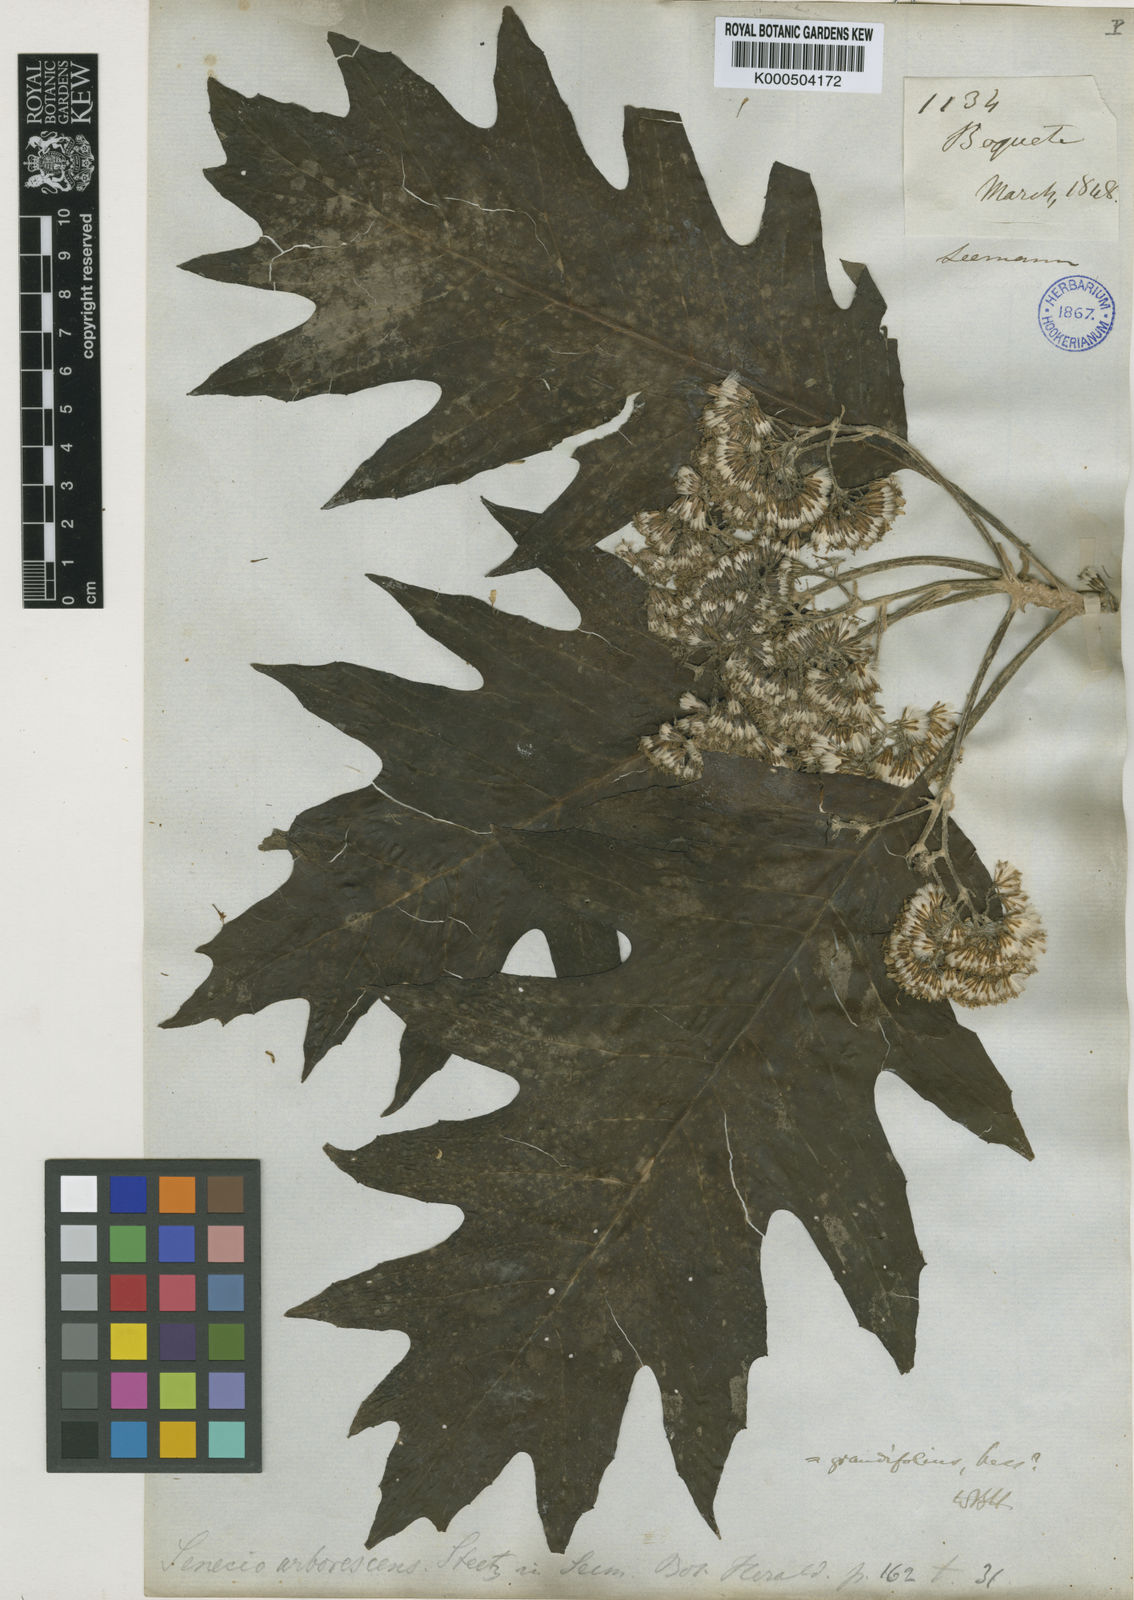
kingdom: Plantae
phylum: Tracheophyta
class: Magnoliopsida
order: Asterales
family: Asteraceae
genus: Telanthophora
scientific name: Telanthophora grandifolia
